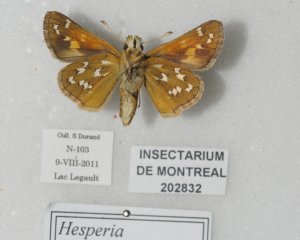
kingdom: Animalia
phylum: Arthropoda
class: Insecta
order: Lepidoptera
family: Hesperiidae
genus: Hesperia
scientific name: Hesperia comma
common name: Common Branded Skipper
